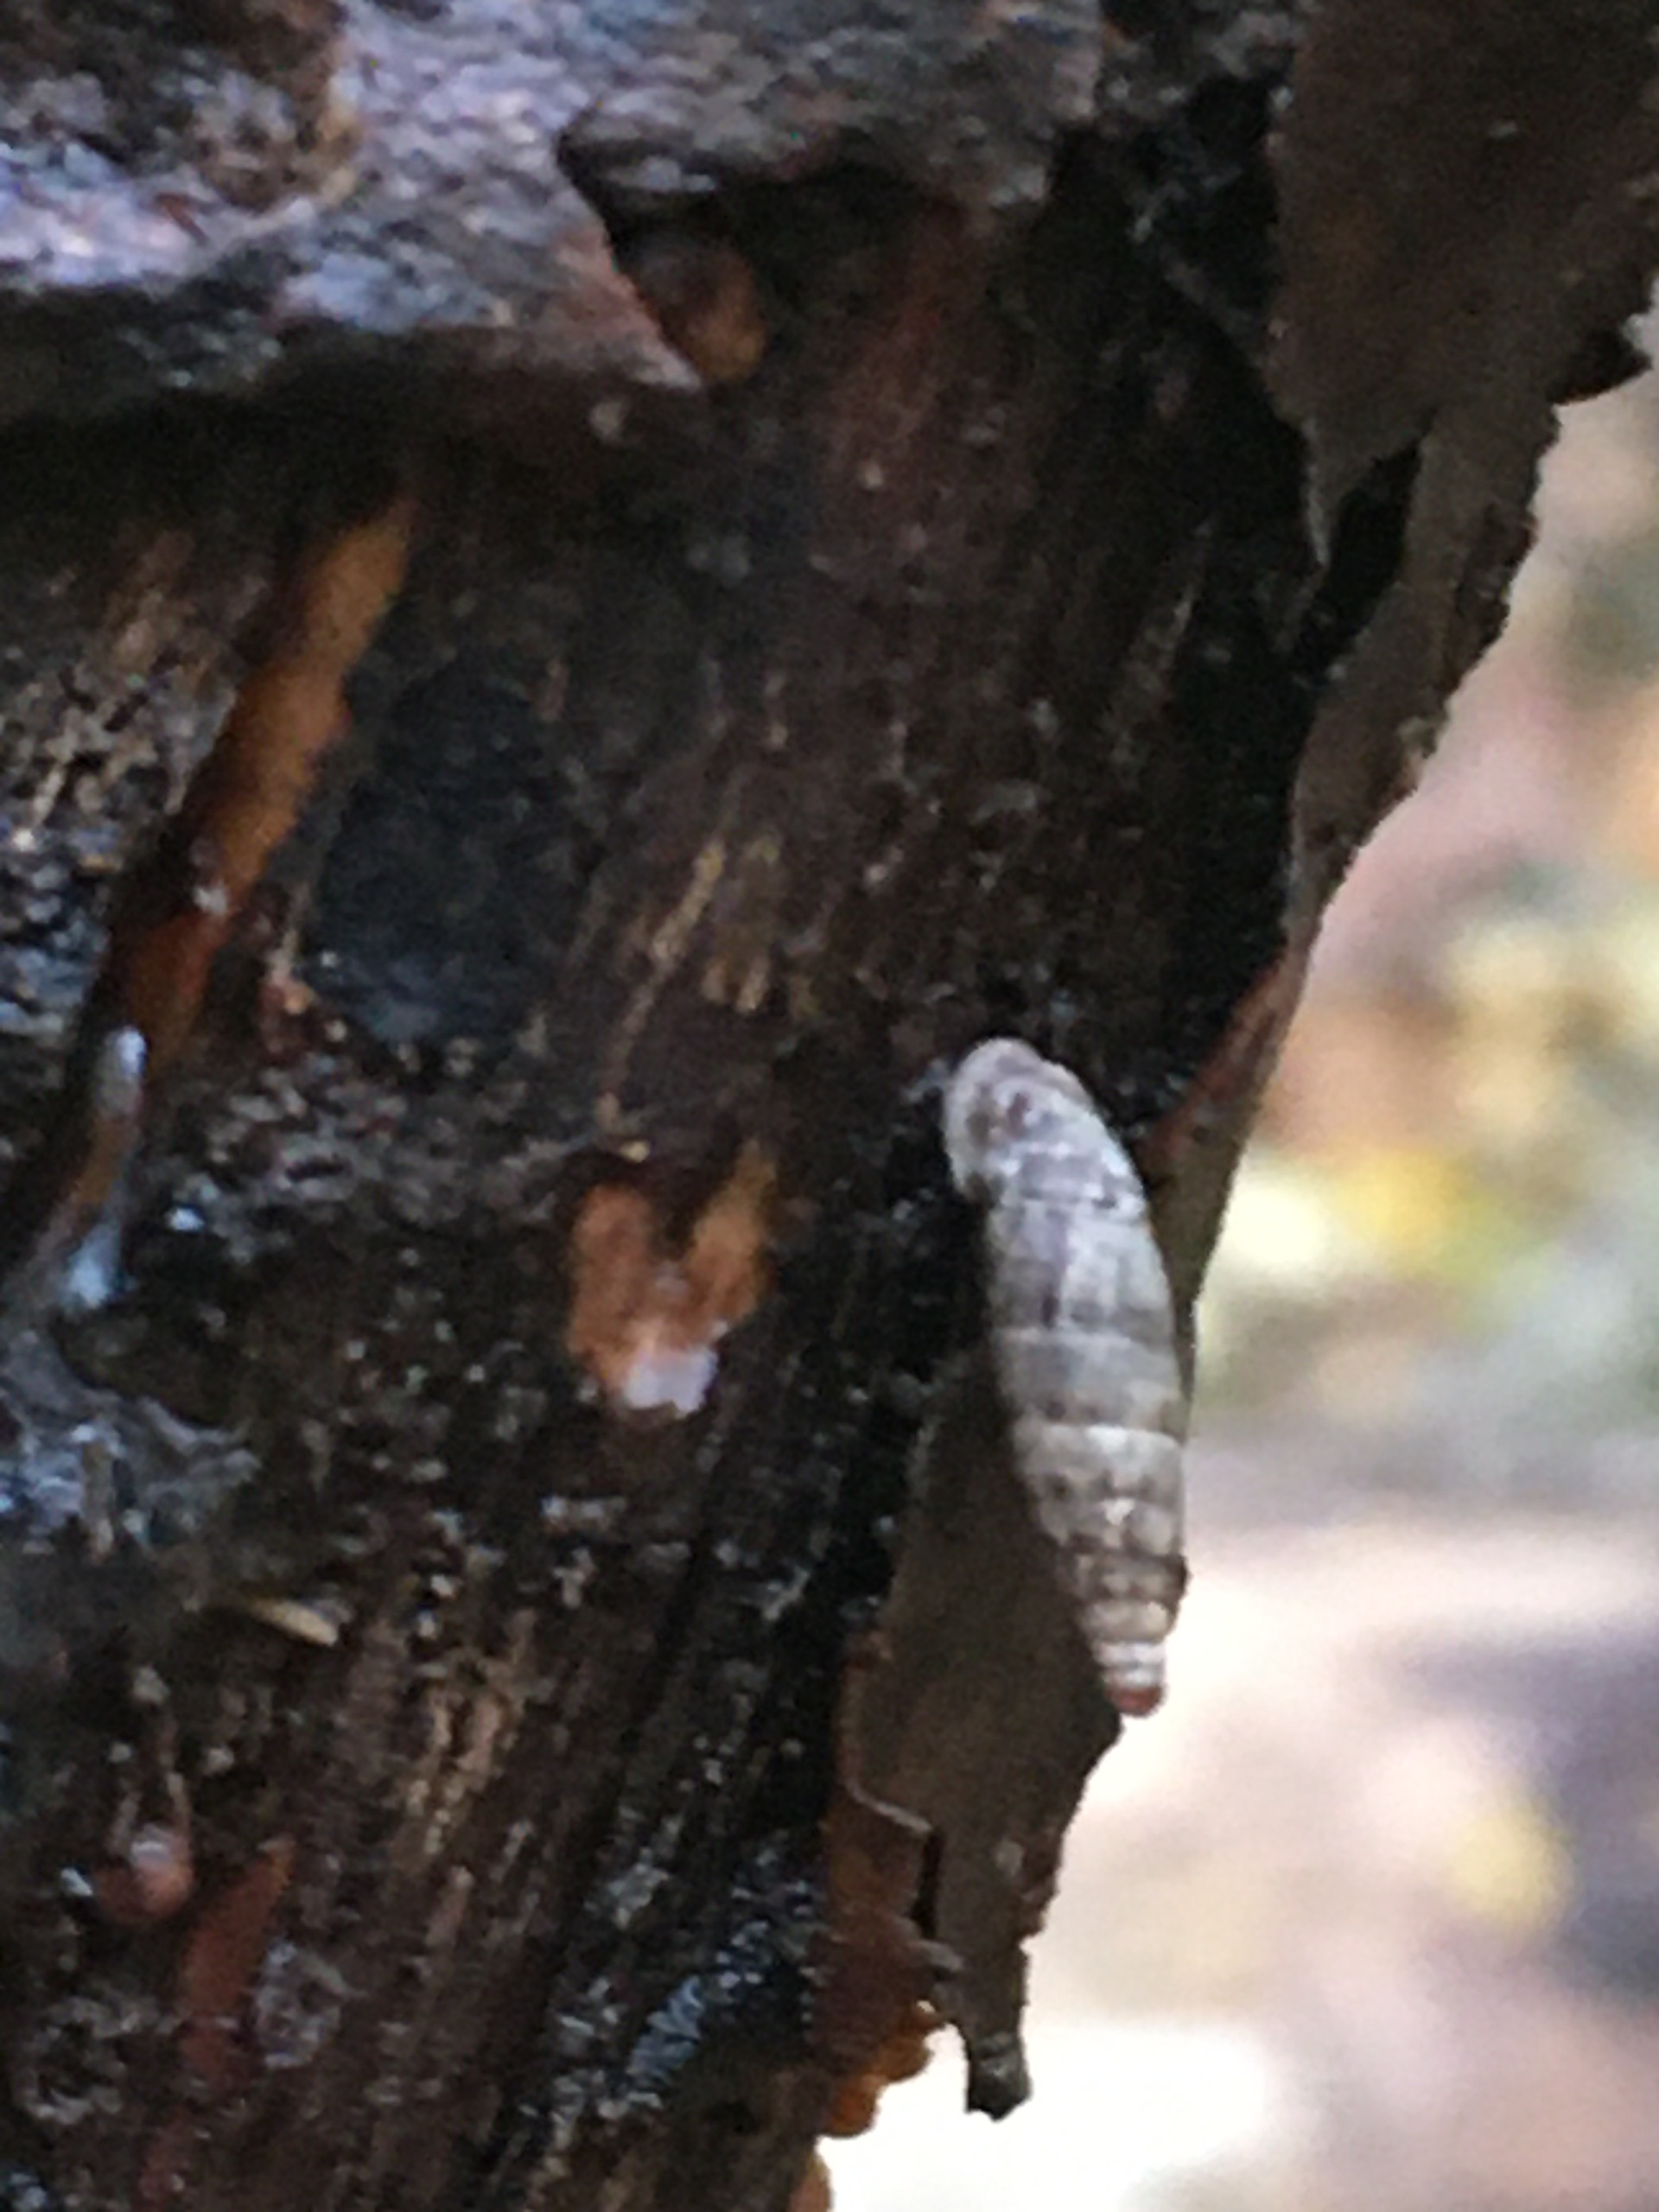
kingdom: Animalia
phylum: Mollusca
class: Gastropoda
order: Stylommatophora
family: Clausiliidae
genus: Clausilia
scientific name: Clausilia bidentata
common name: Lille foldsnegl
